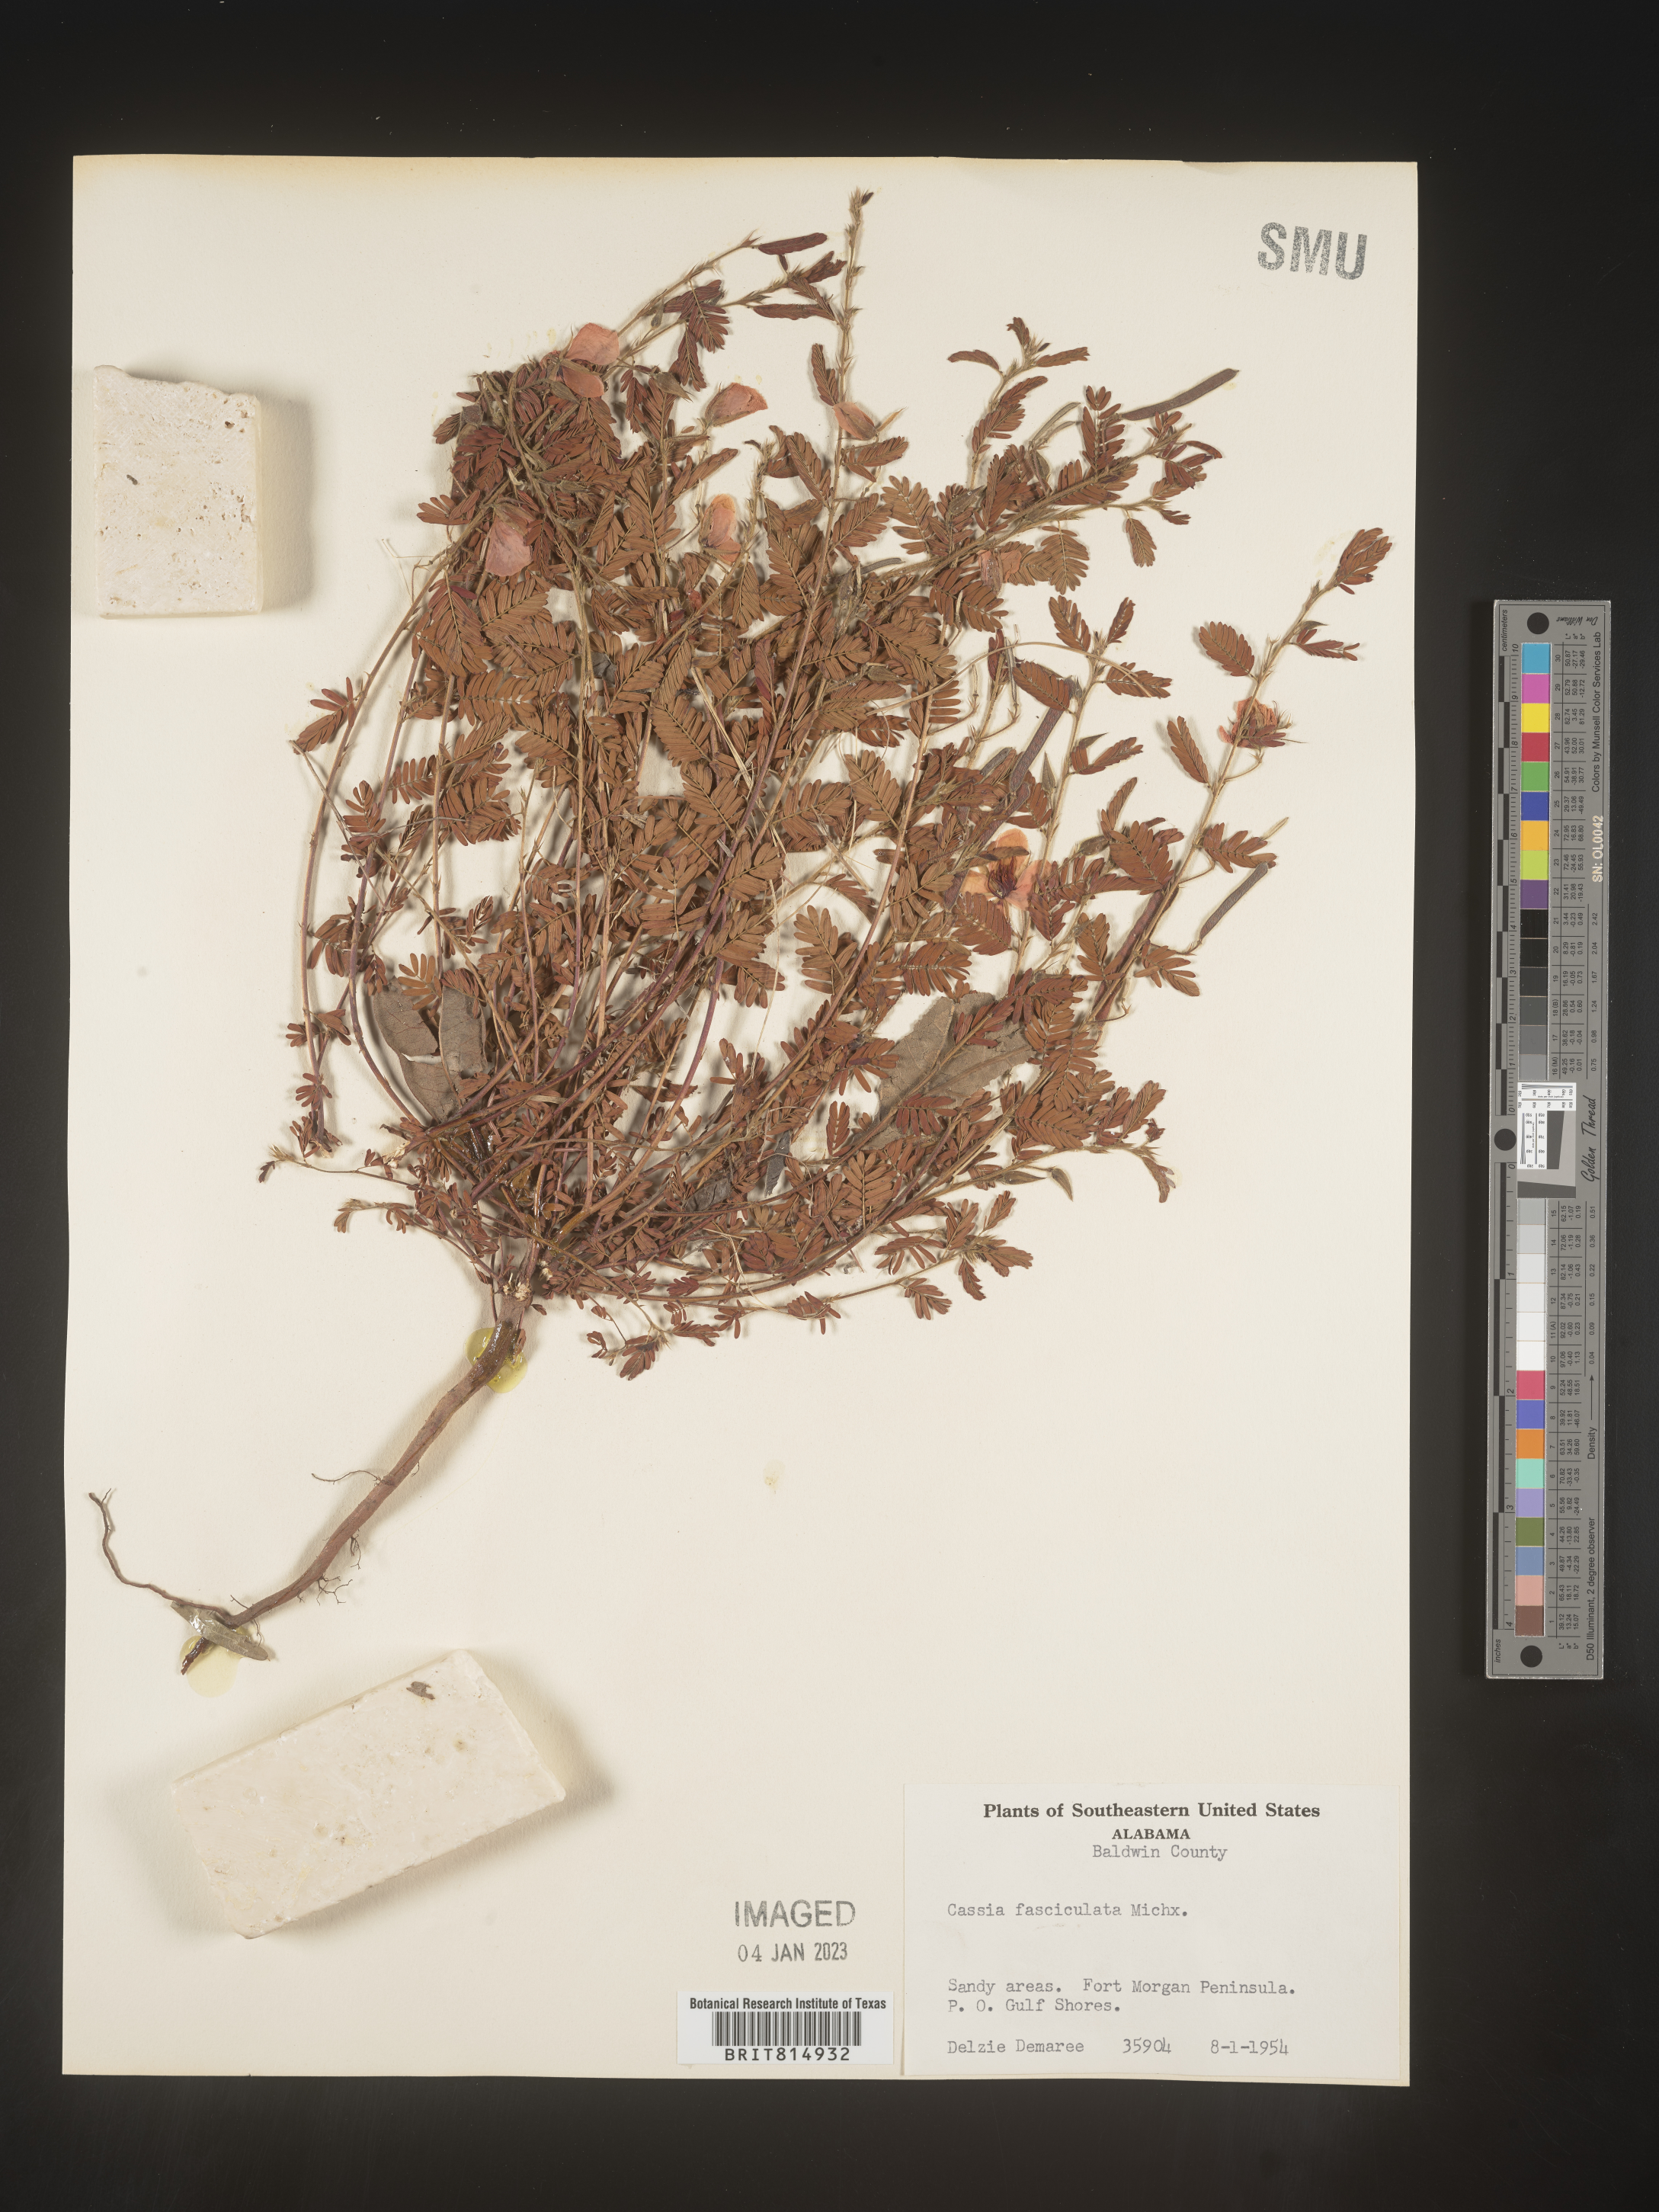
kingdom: Plantae
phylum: Tracheophyta
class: Magnoliopsida
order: Fabales
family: Fabaceae
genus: Chamaecrista
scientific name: Chamaecrista fasciculata
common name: Golden cassia
